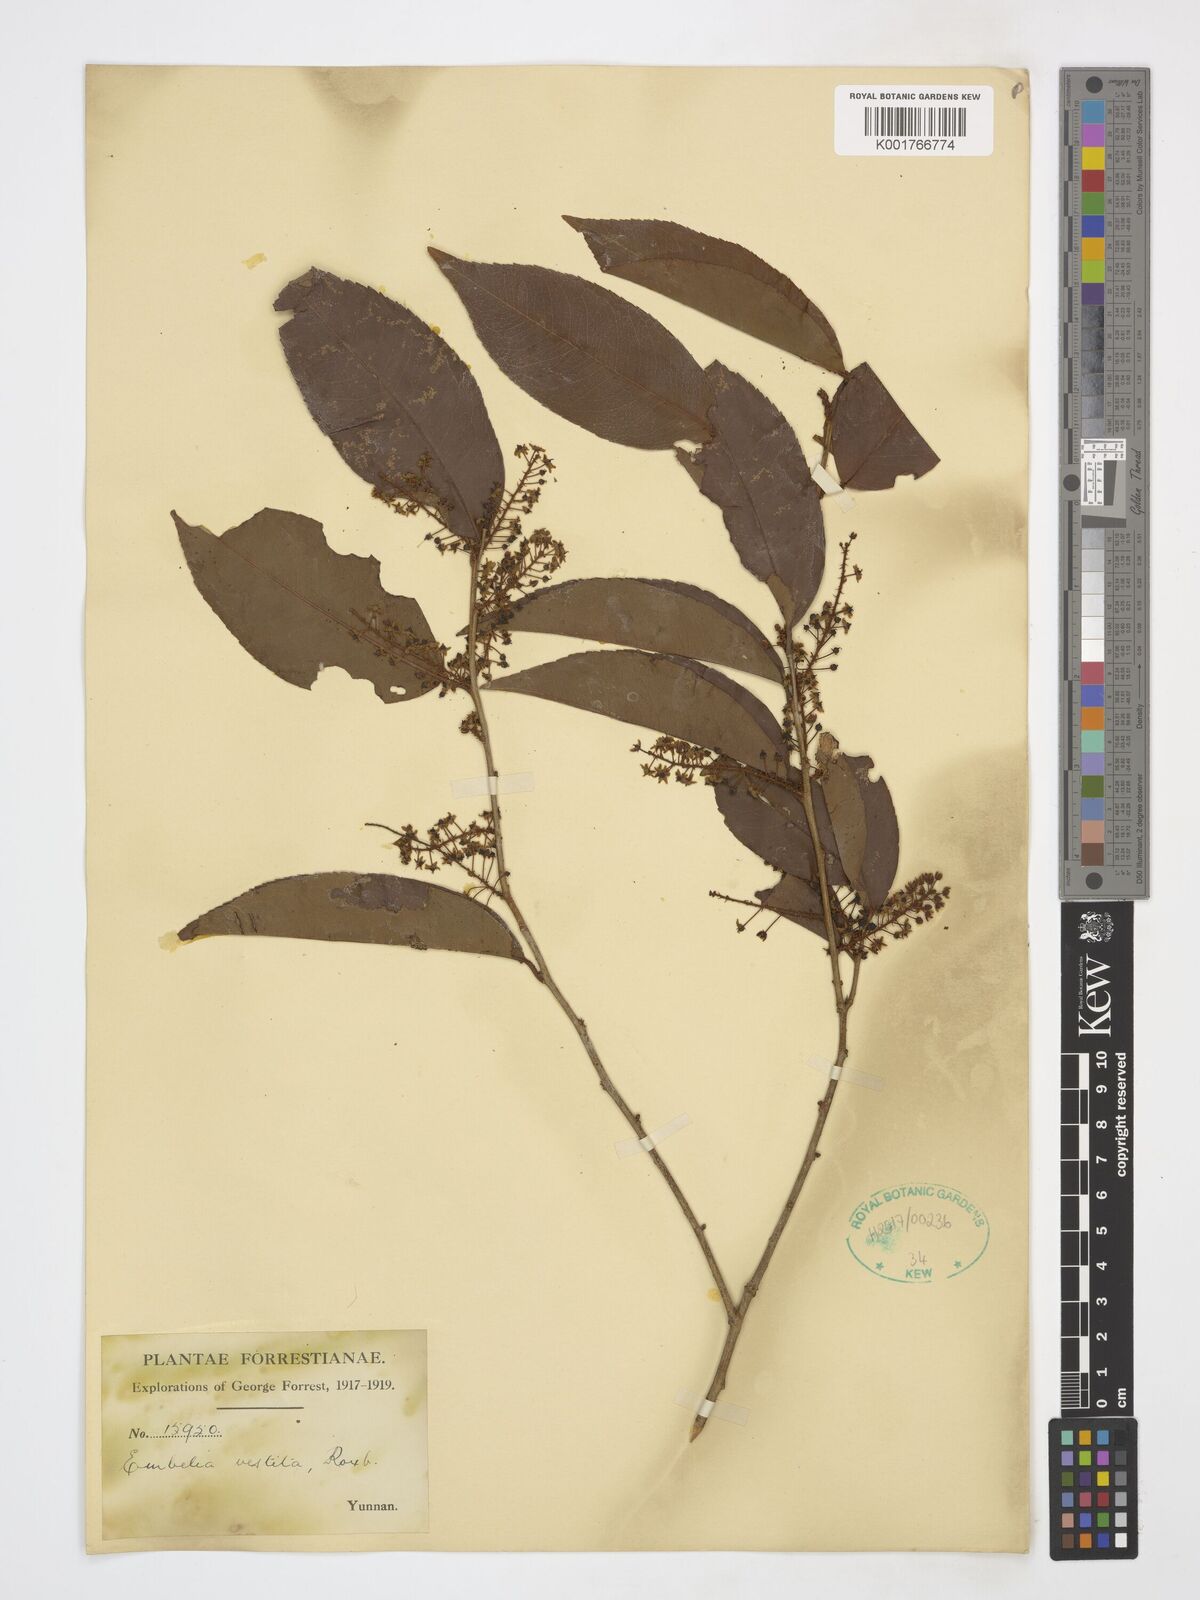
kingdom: Plantae
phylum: Tracheophyta
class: Magnoliopsida
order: Ericales
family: Primulaceae
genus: Embelia
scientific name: Embelia vestita
